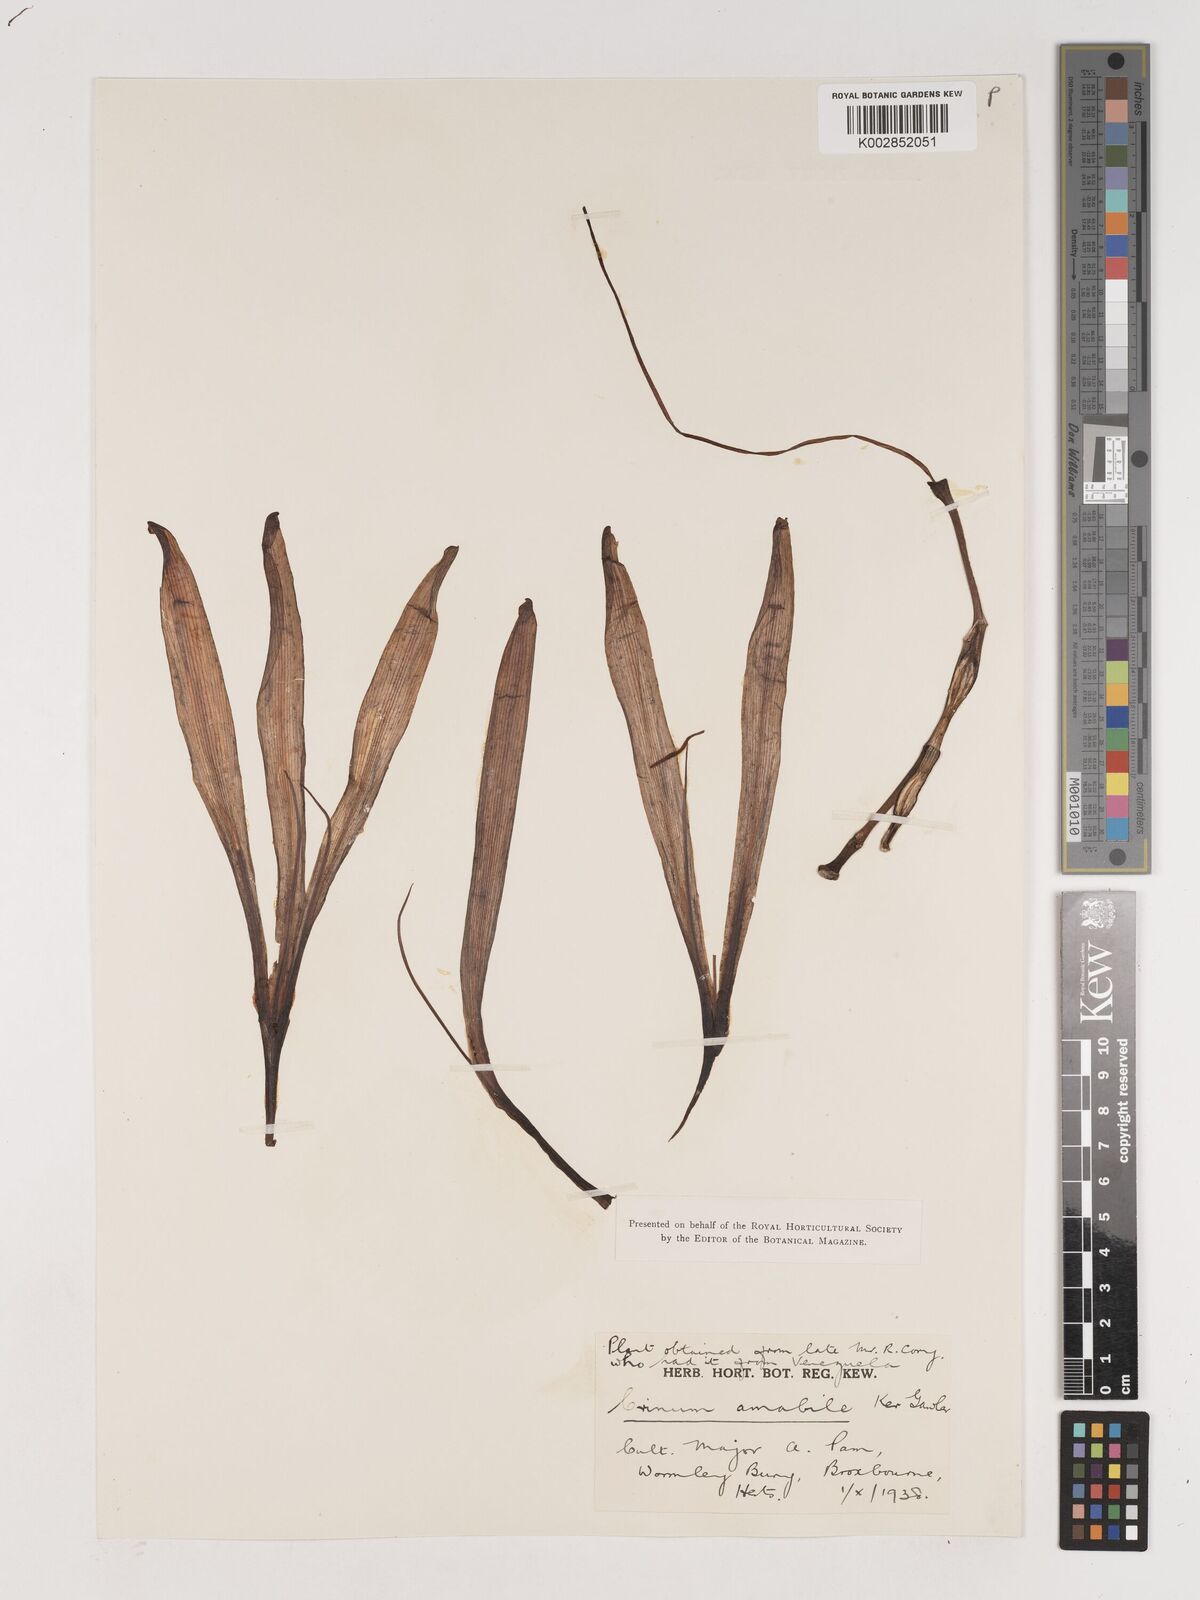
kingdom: Plantae
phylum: Tracheophyta
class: Liliopsida
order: Asparagales
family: Amaryllidaceae
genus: Crinum
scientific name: Crinum amabile
